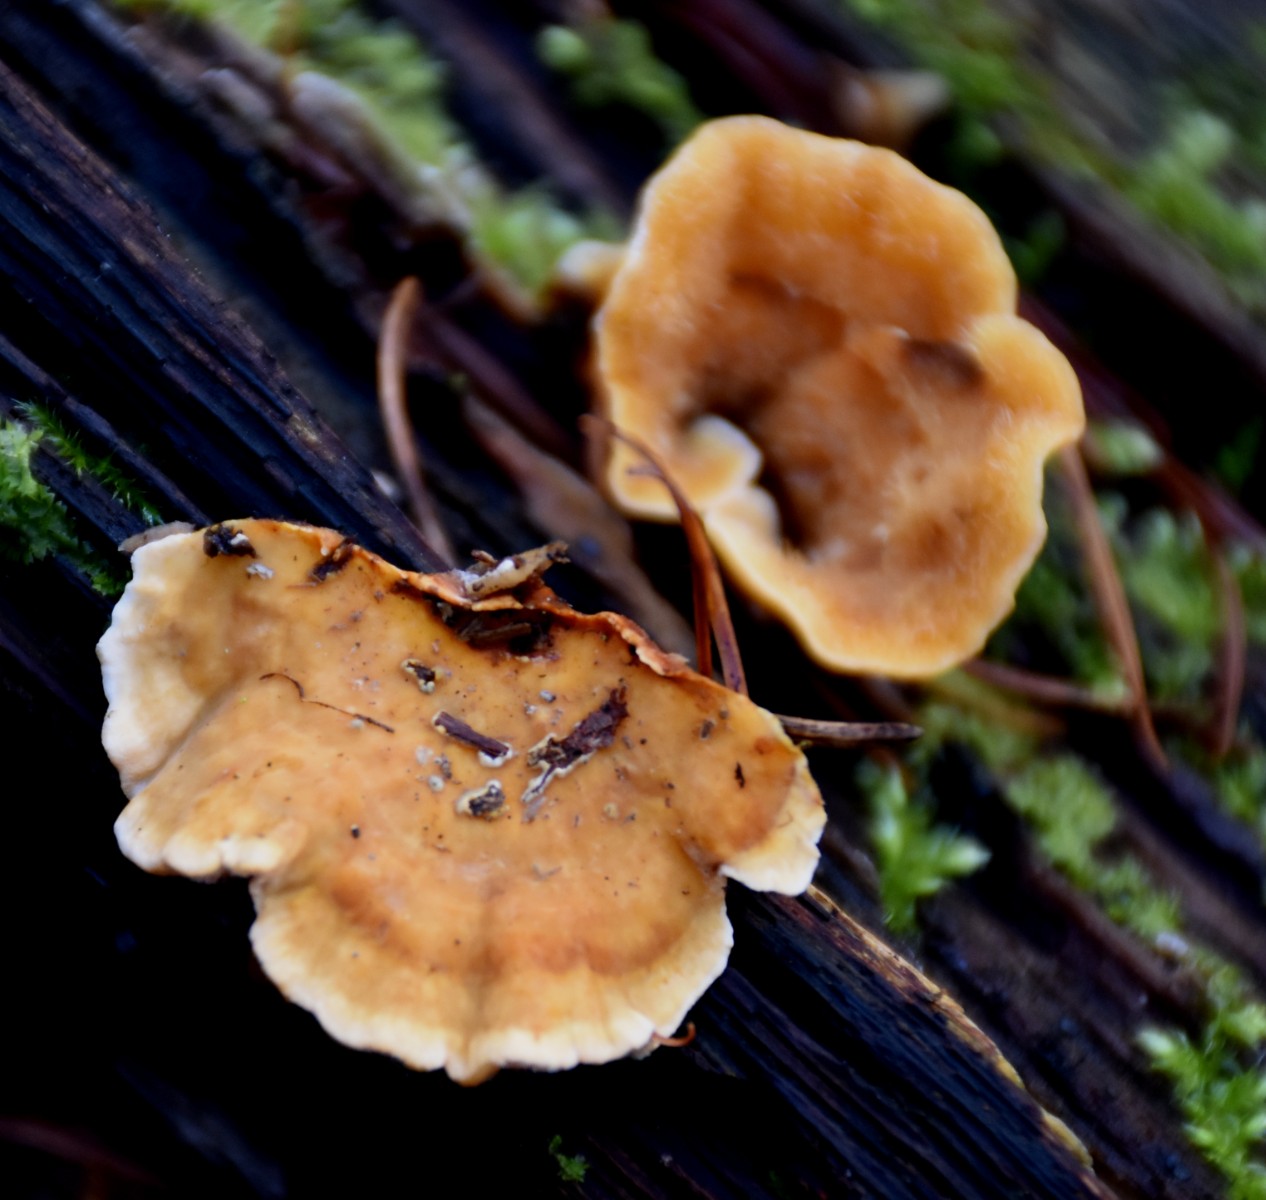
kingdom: Fungi
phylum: Basidiomycota
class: Agaricomycetes
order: Russulales
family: Stereaceae
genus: Stereum
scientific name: Stereum hirsutum
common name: håret lædersvamp
